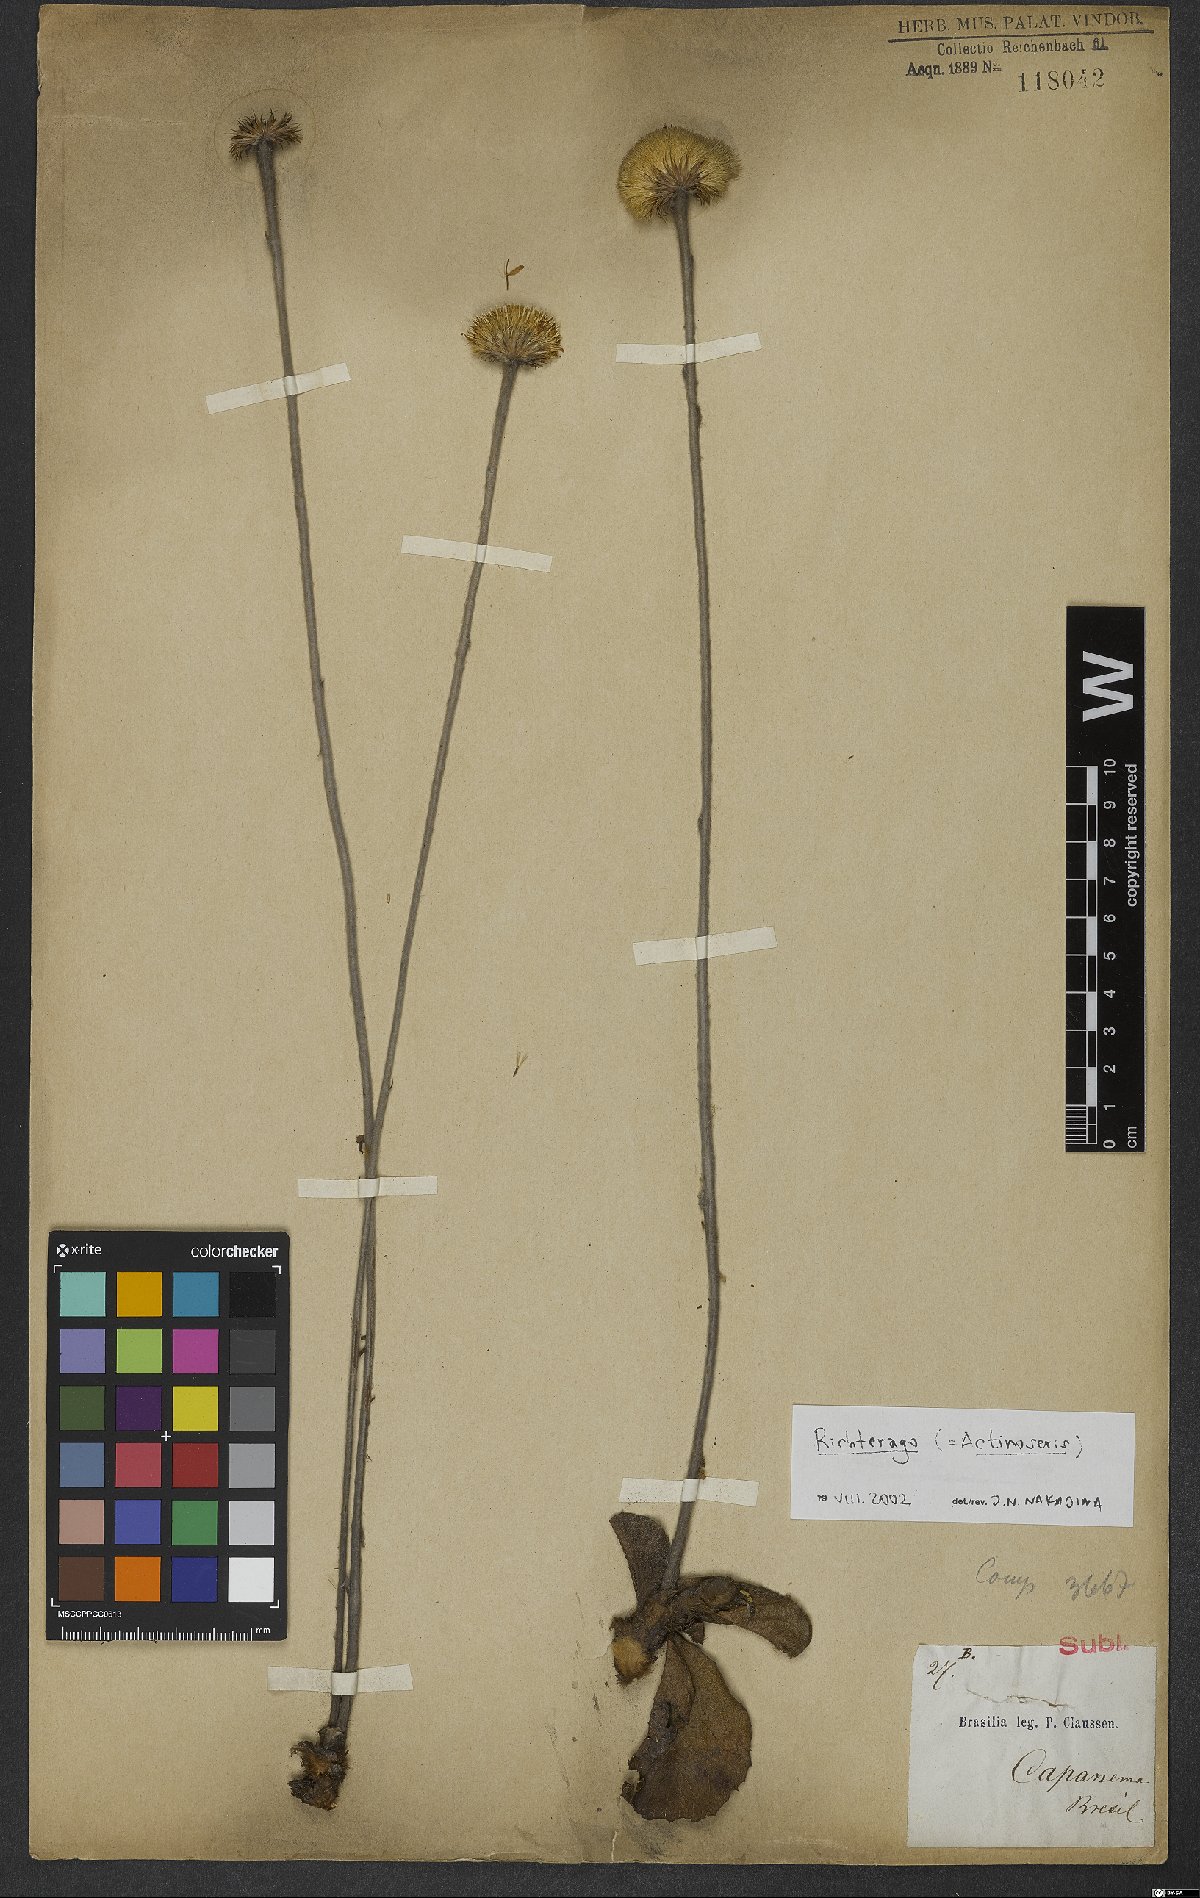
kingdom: Animalia
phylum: Cnidaria
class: Anthozoa
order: Scleractinia
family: Asteroseriidae
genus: Actinoseris
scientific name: Actinoseris
